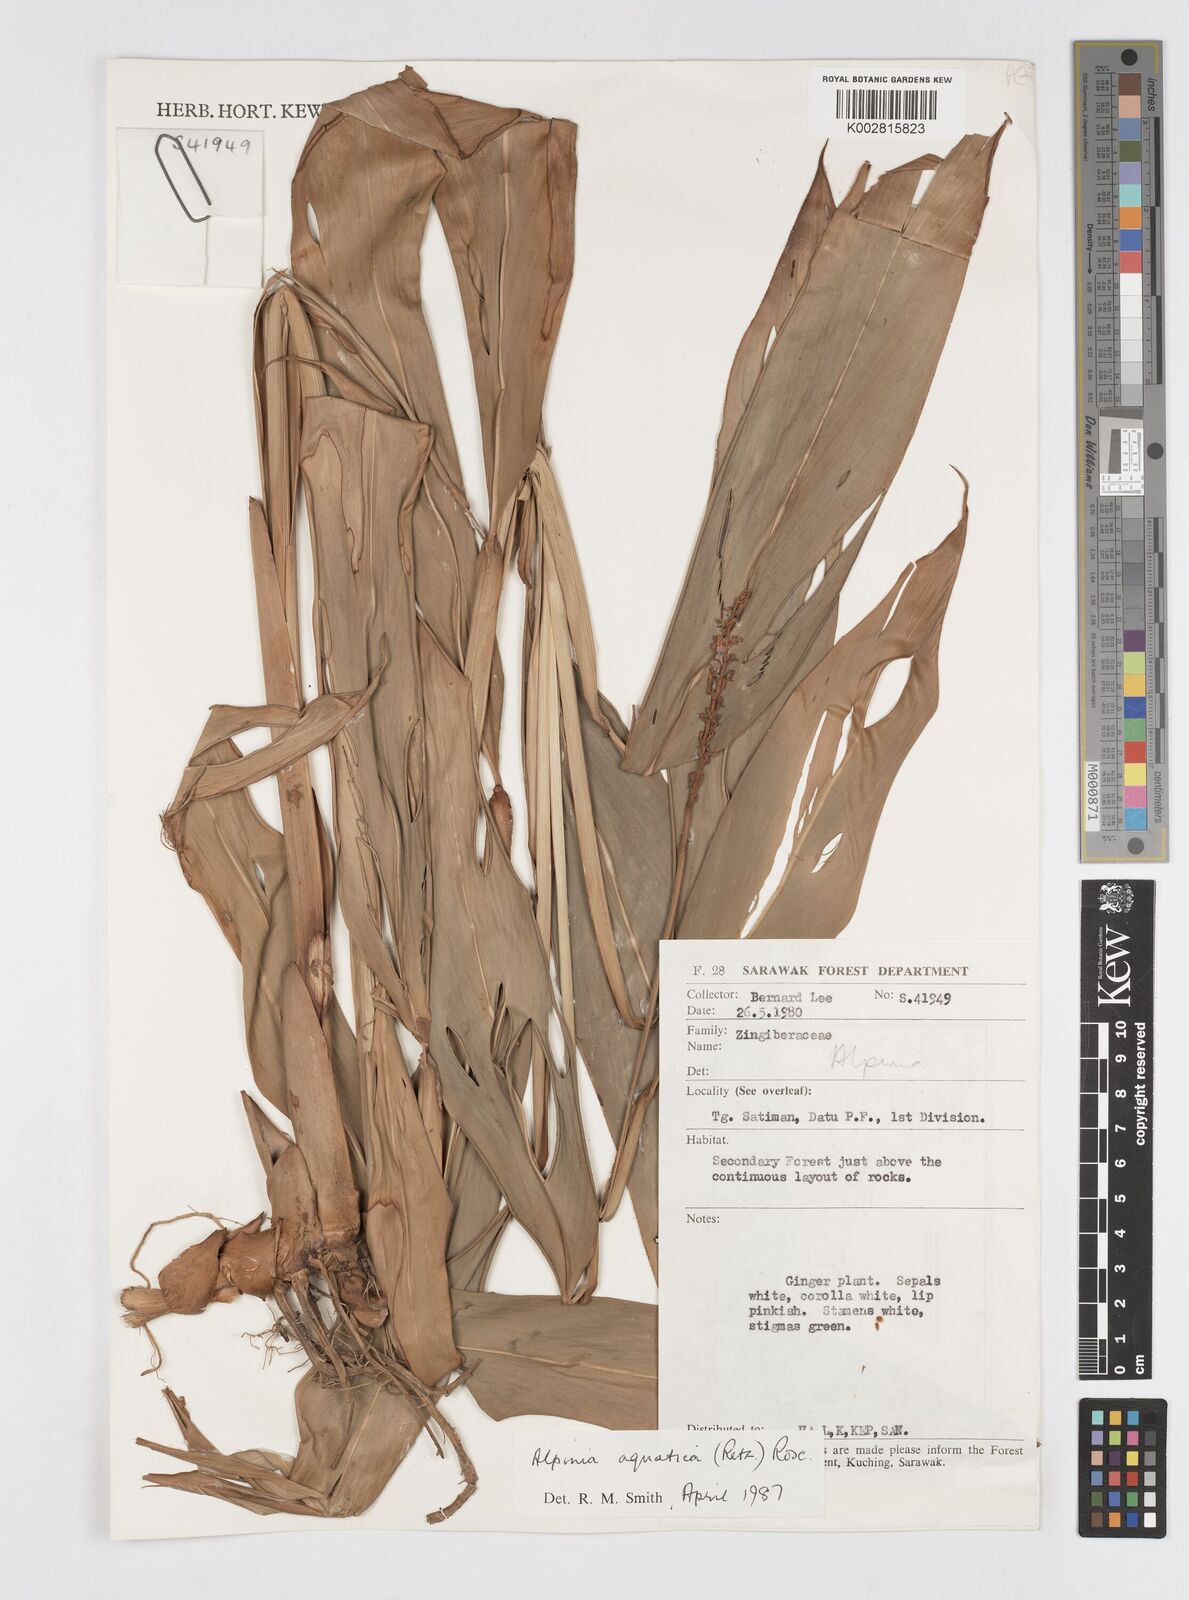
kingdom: Plantae
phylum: Tracheophyta
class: Liliopsida
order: Zingiberales
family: Zingiberaceae
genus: Alpinia
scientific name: Alpinia aquatica
